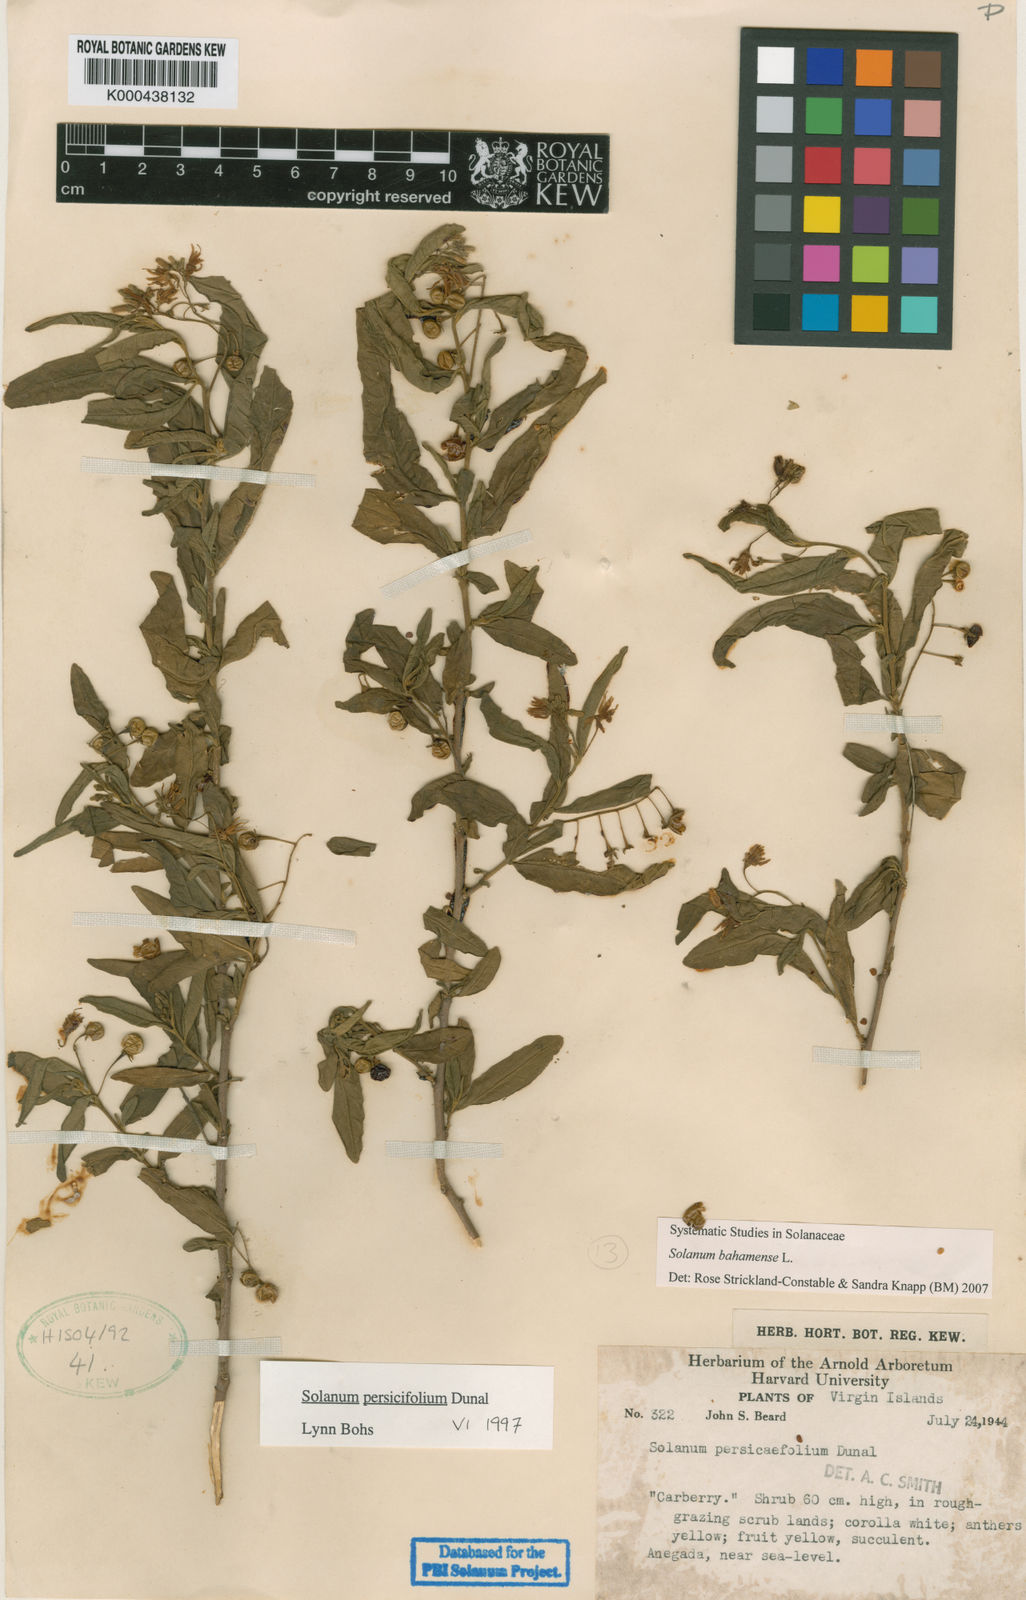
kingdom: Plantae
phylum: Tracheophyta
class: Magnoliopsida
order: Solanales
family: Solanaceae
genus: Solanum
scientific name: Solanum bahamense
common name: Canker-berry
